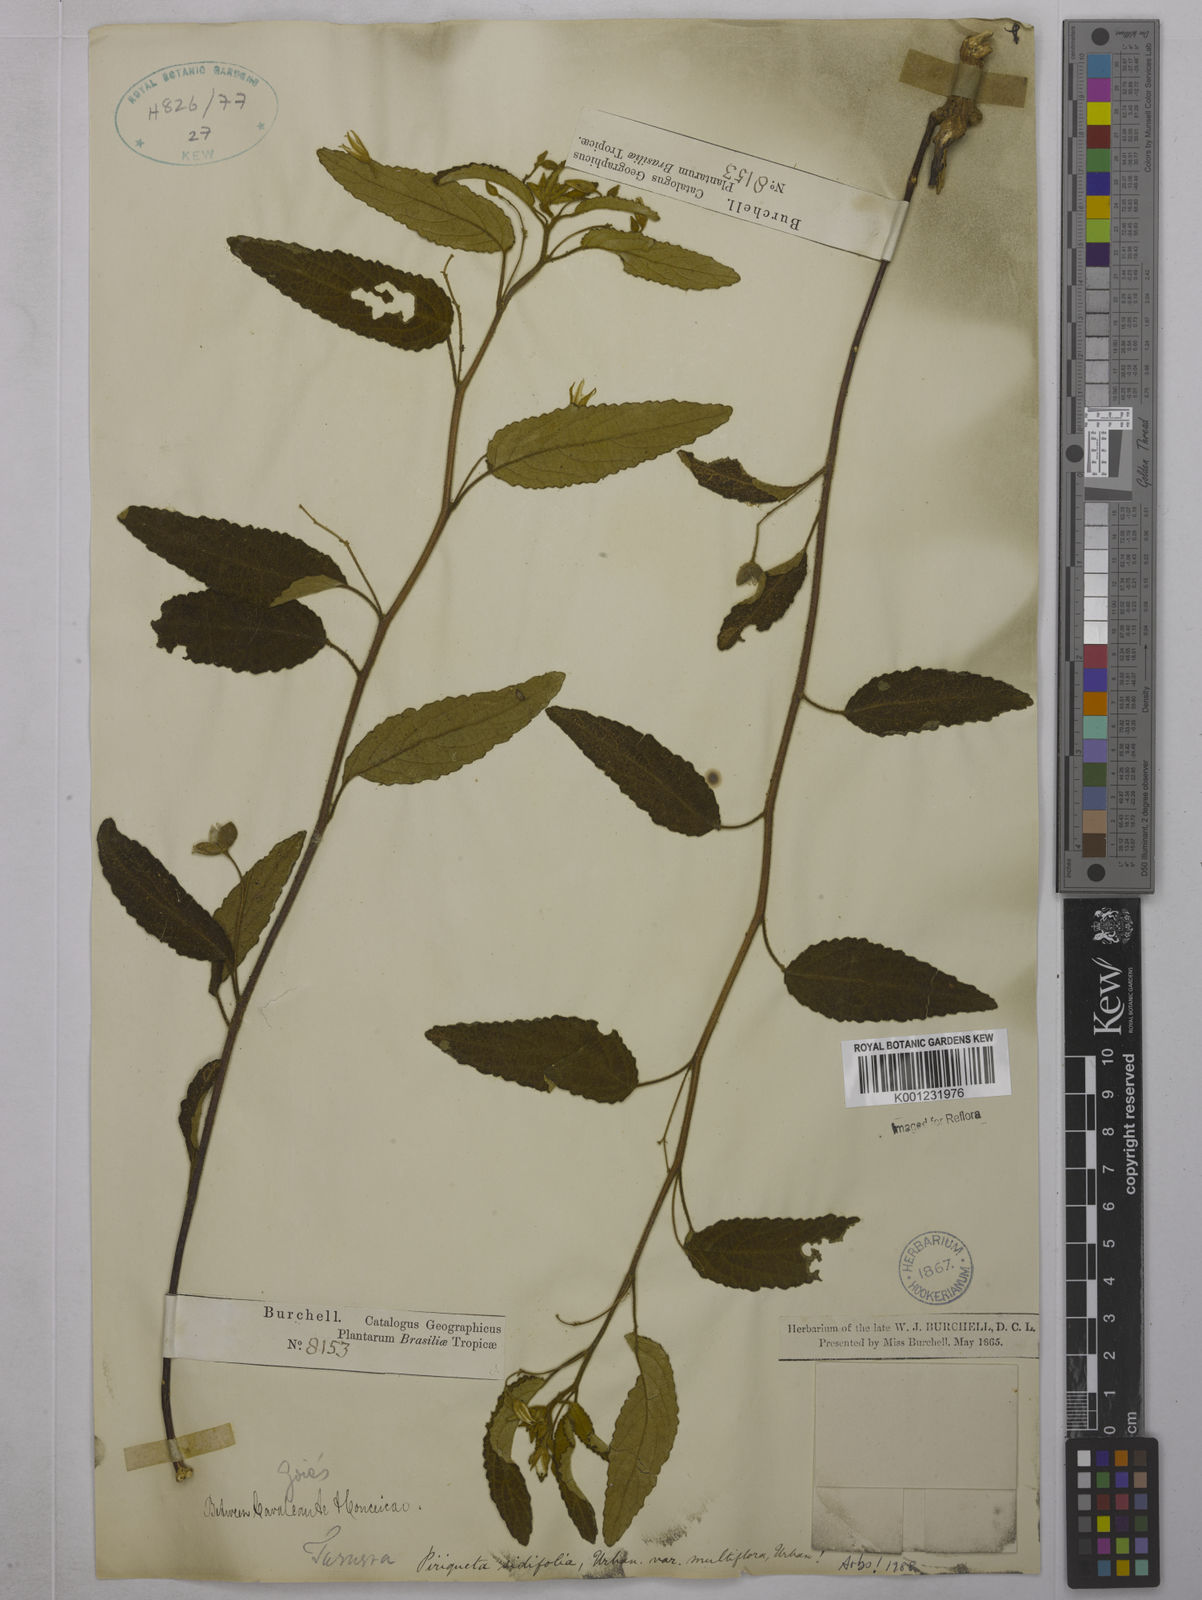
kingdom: Plantae
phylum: Tracheophyta
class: Magnoliopsida
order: Malpighiales
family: Turneraceae
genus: Piriqueta
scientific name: Piriqueta sidifolia
